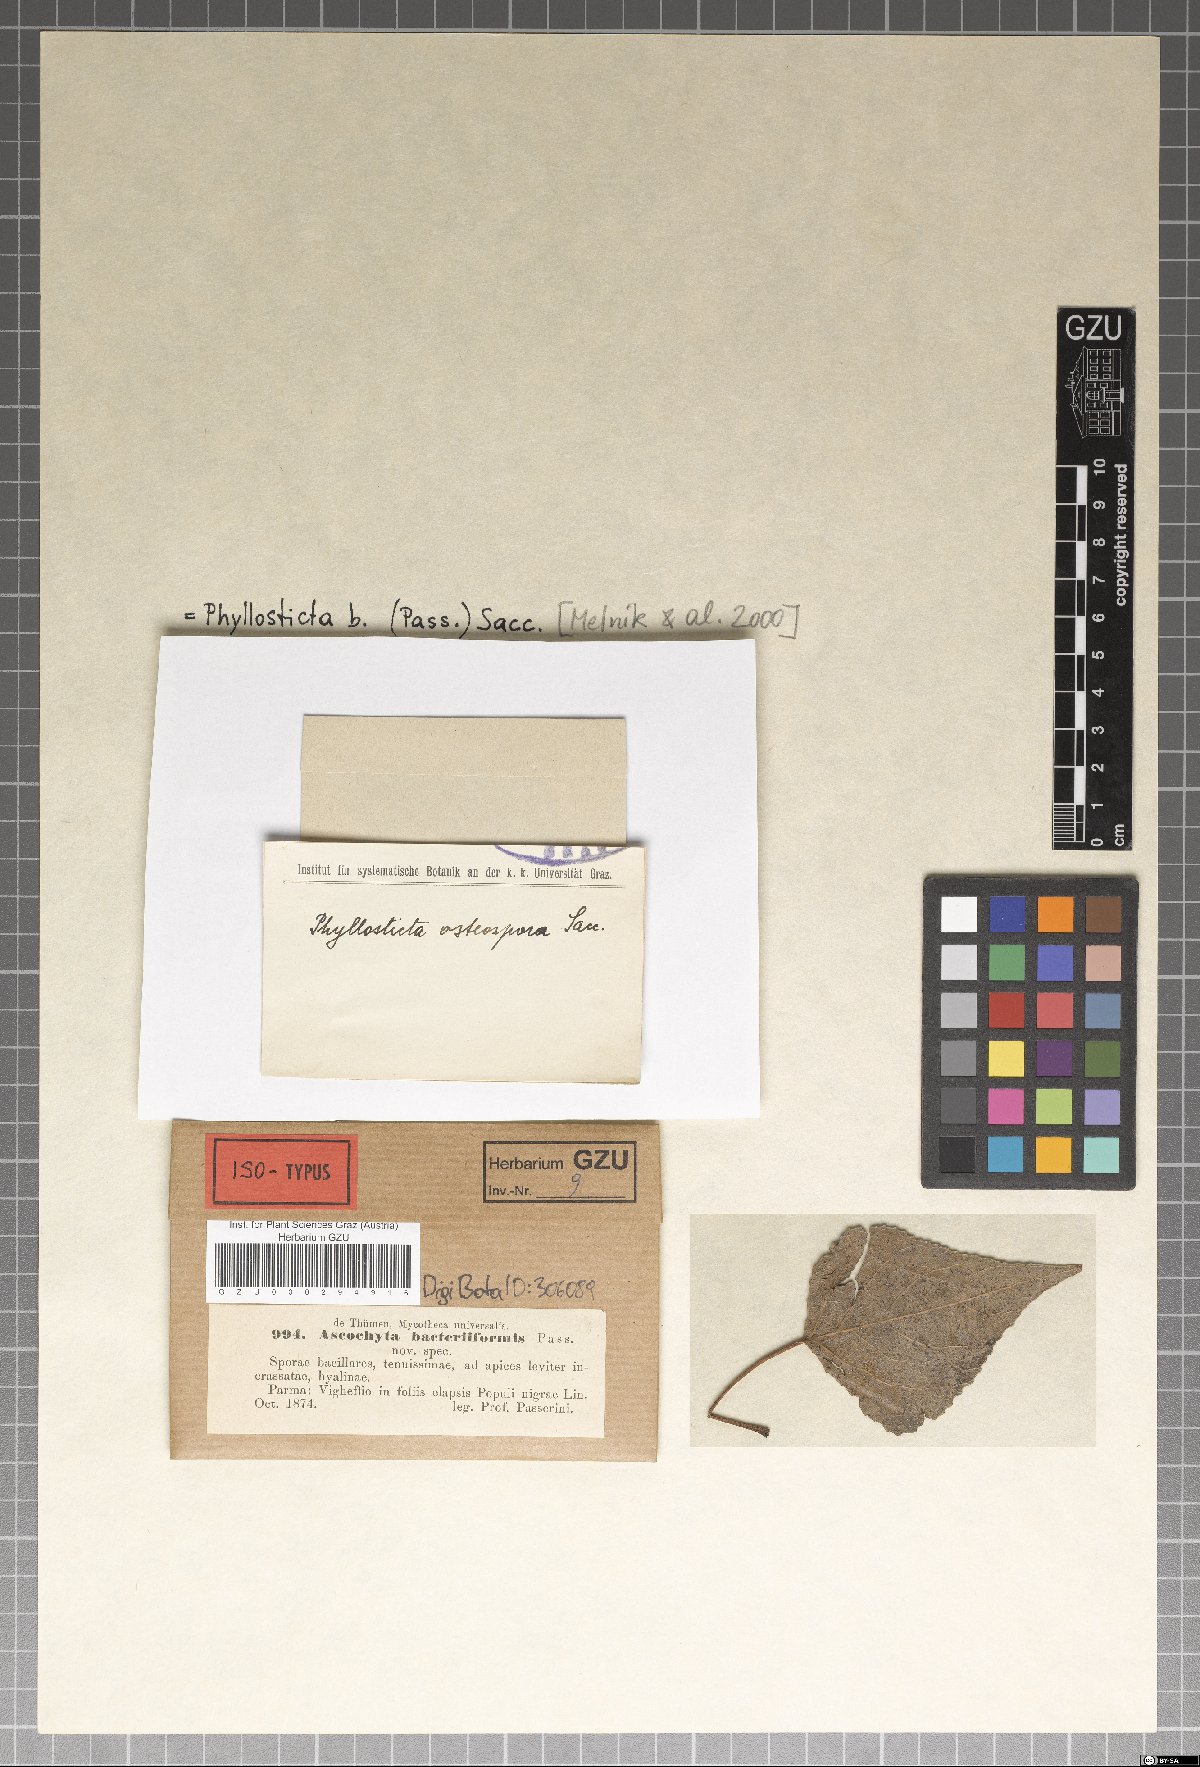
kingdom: Fungi
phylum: Ascomycota
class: Dothideomycetes
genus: Asteromella
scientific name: Asteromella bacteriiformis
